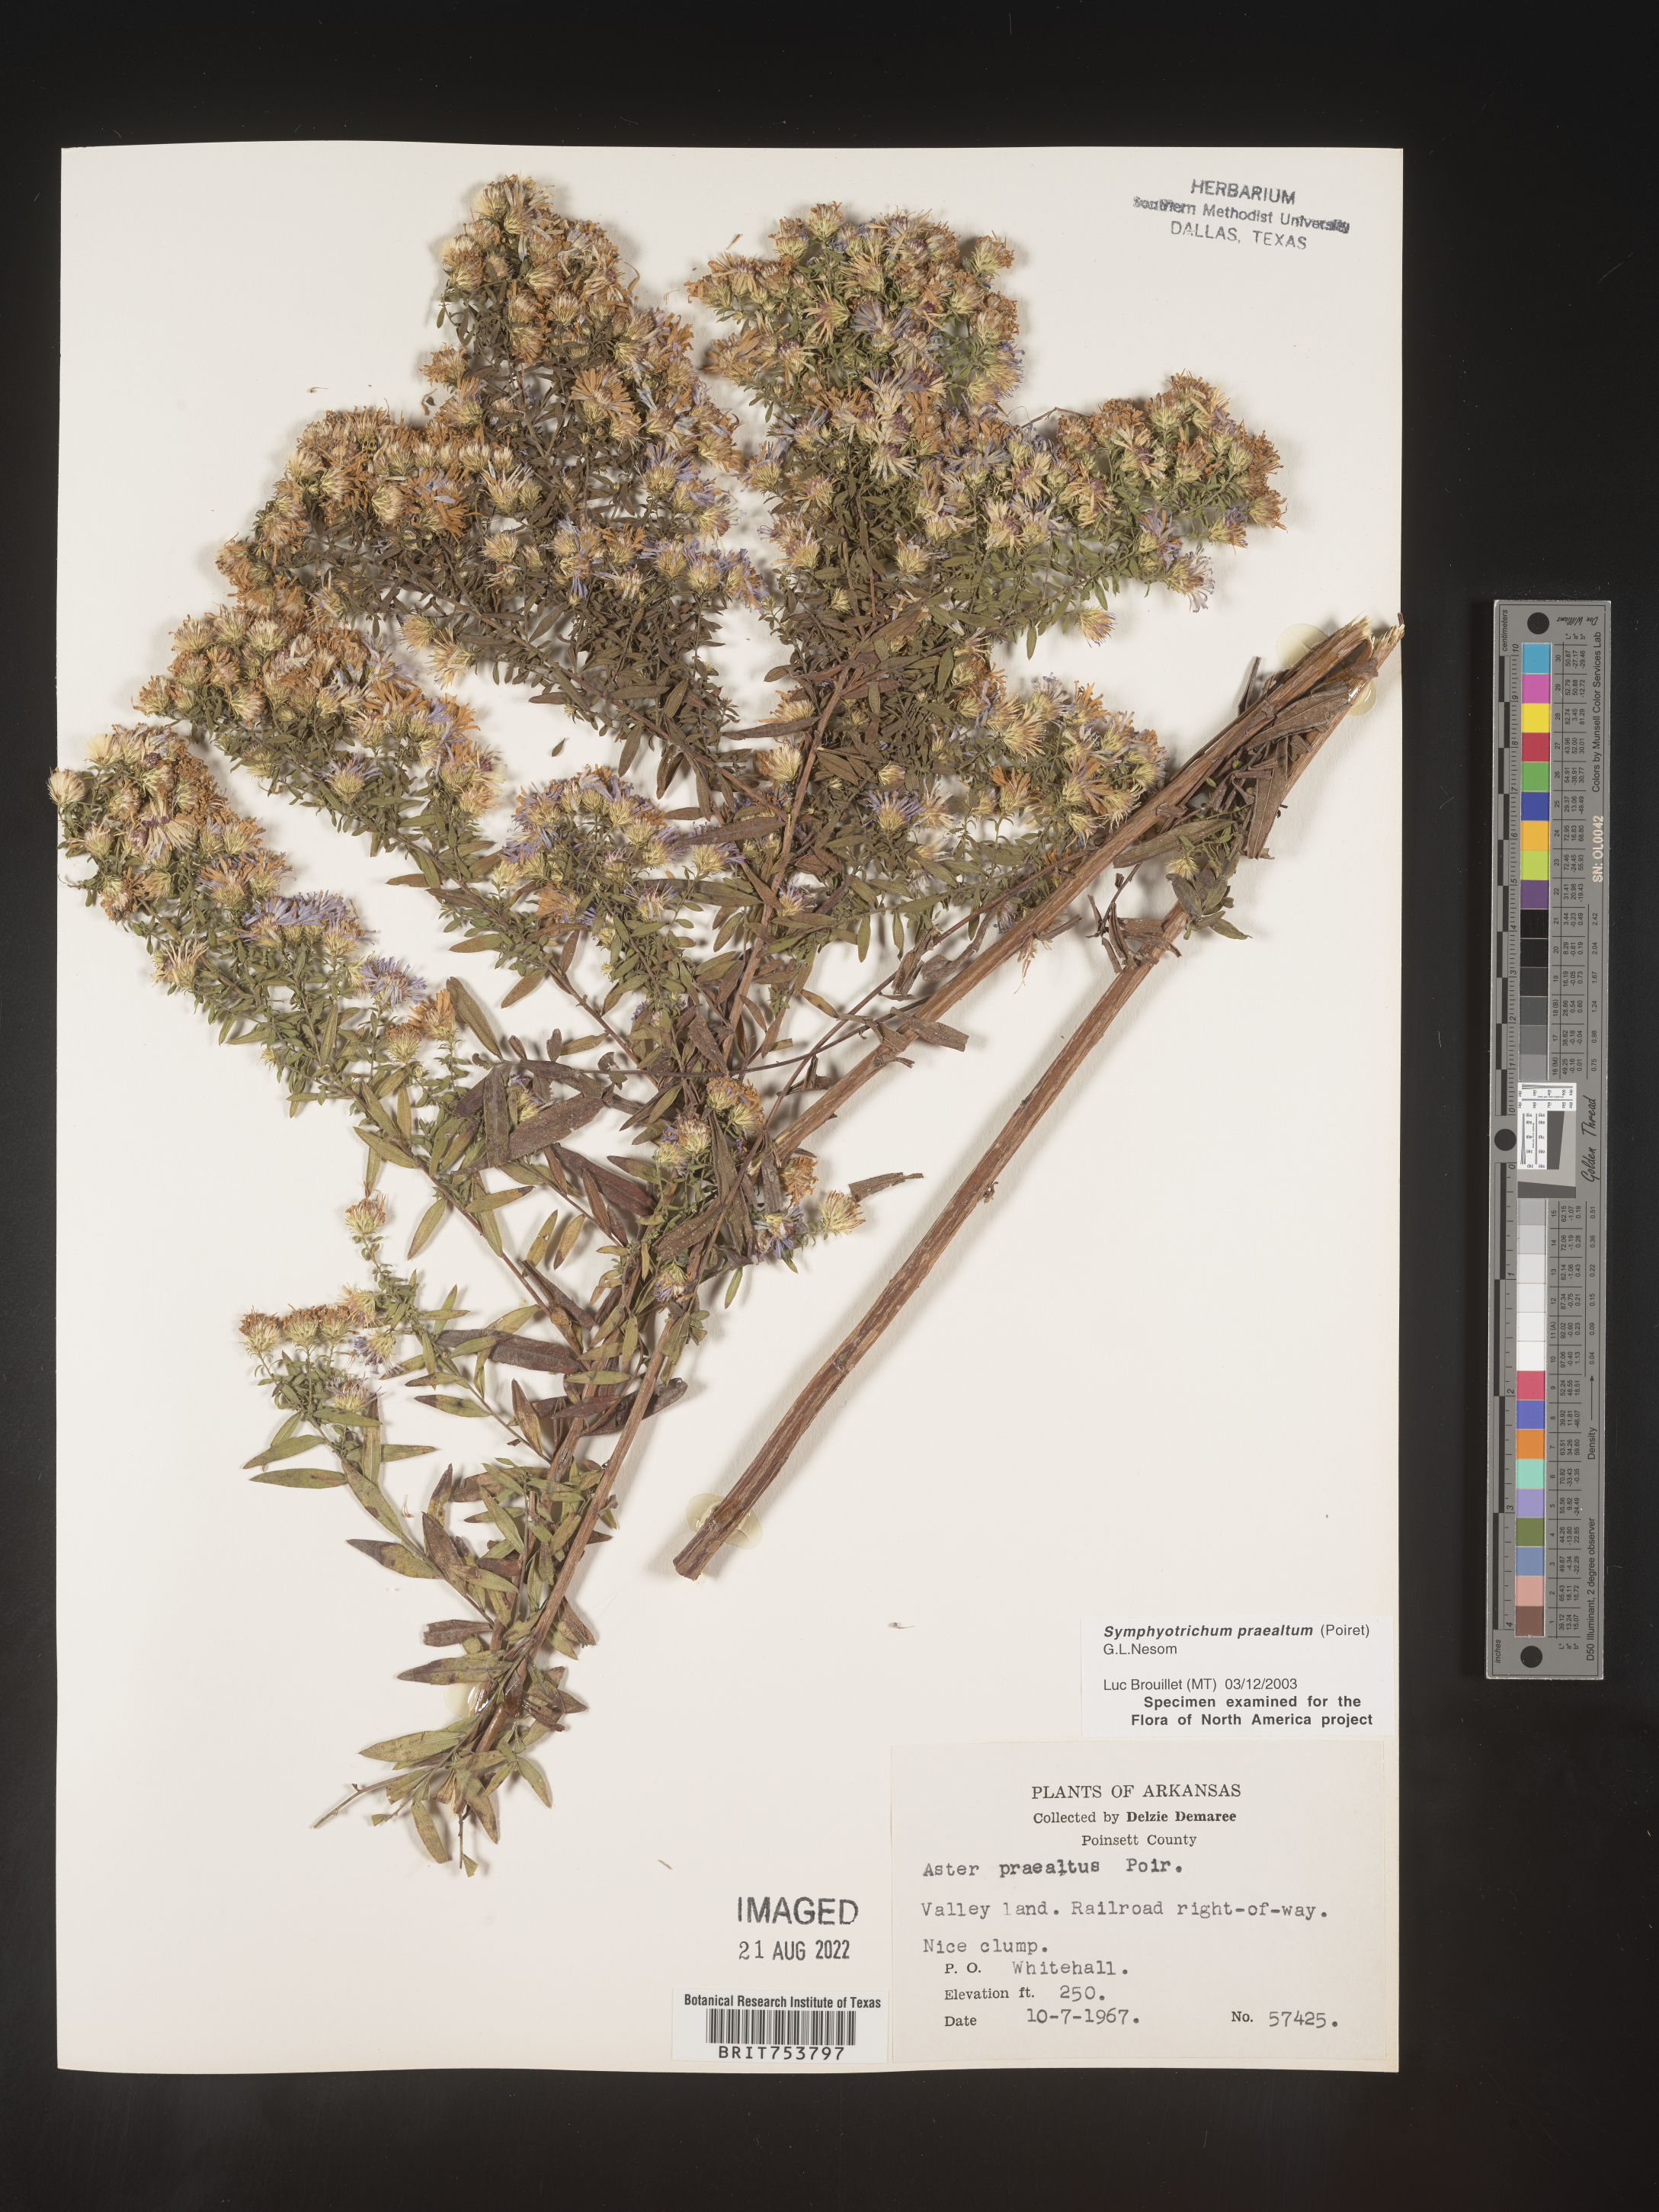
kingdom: Plantae
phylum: Tracheophyta
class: Magnoliopsida
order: Asterales
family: Asteraceae
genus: Symphyotrichum
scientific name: Symphyotrichum praealtum
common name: Willow aster
